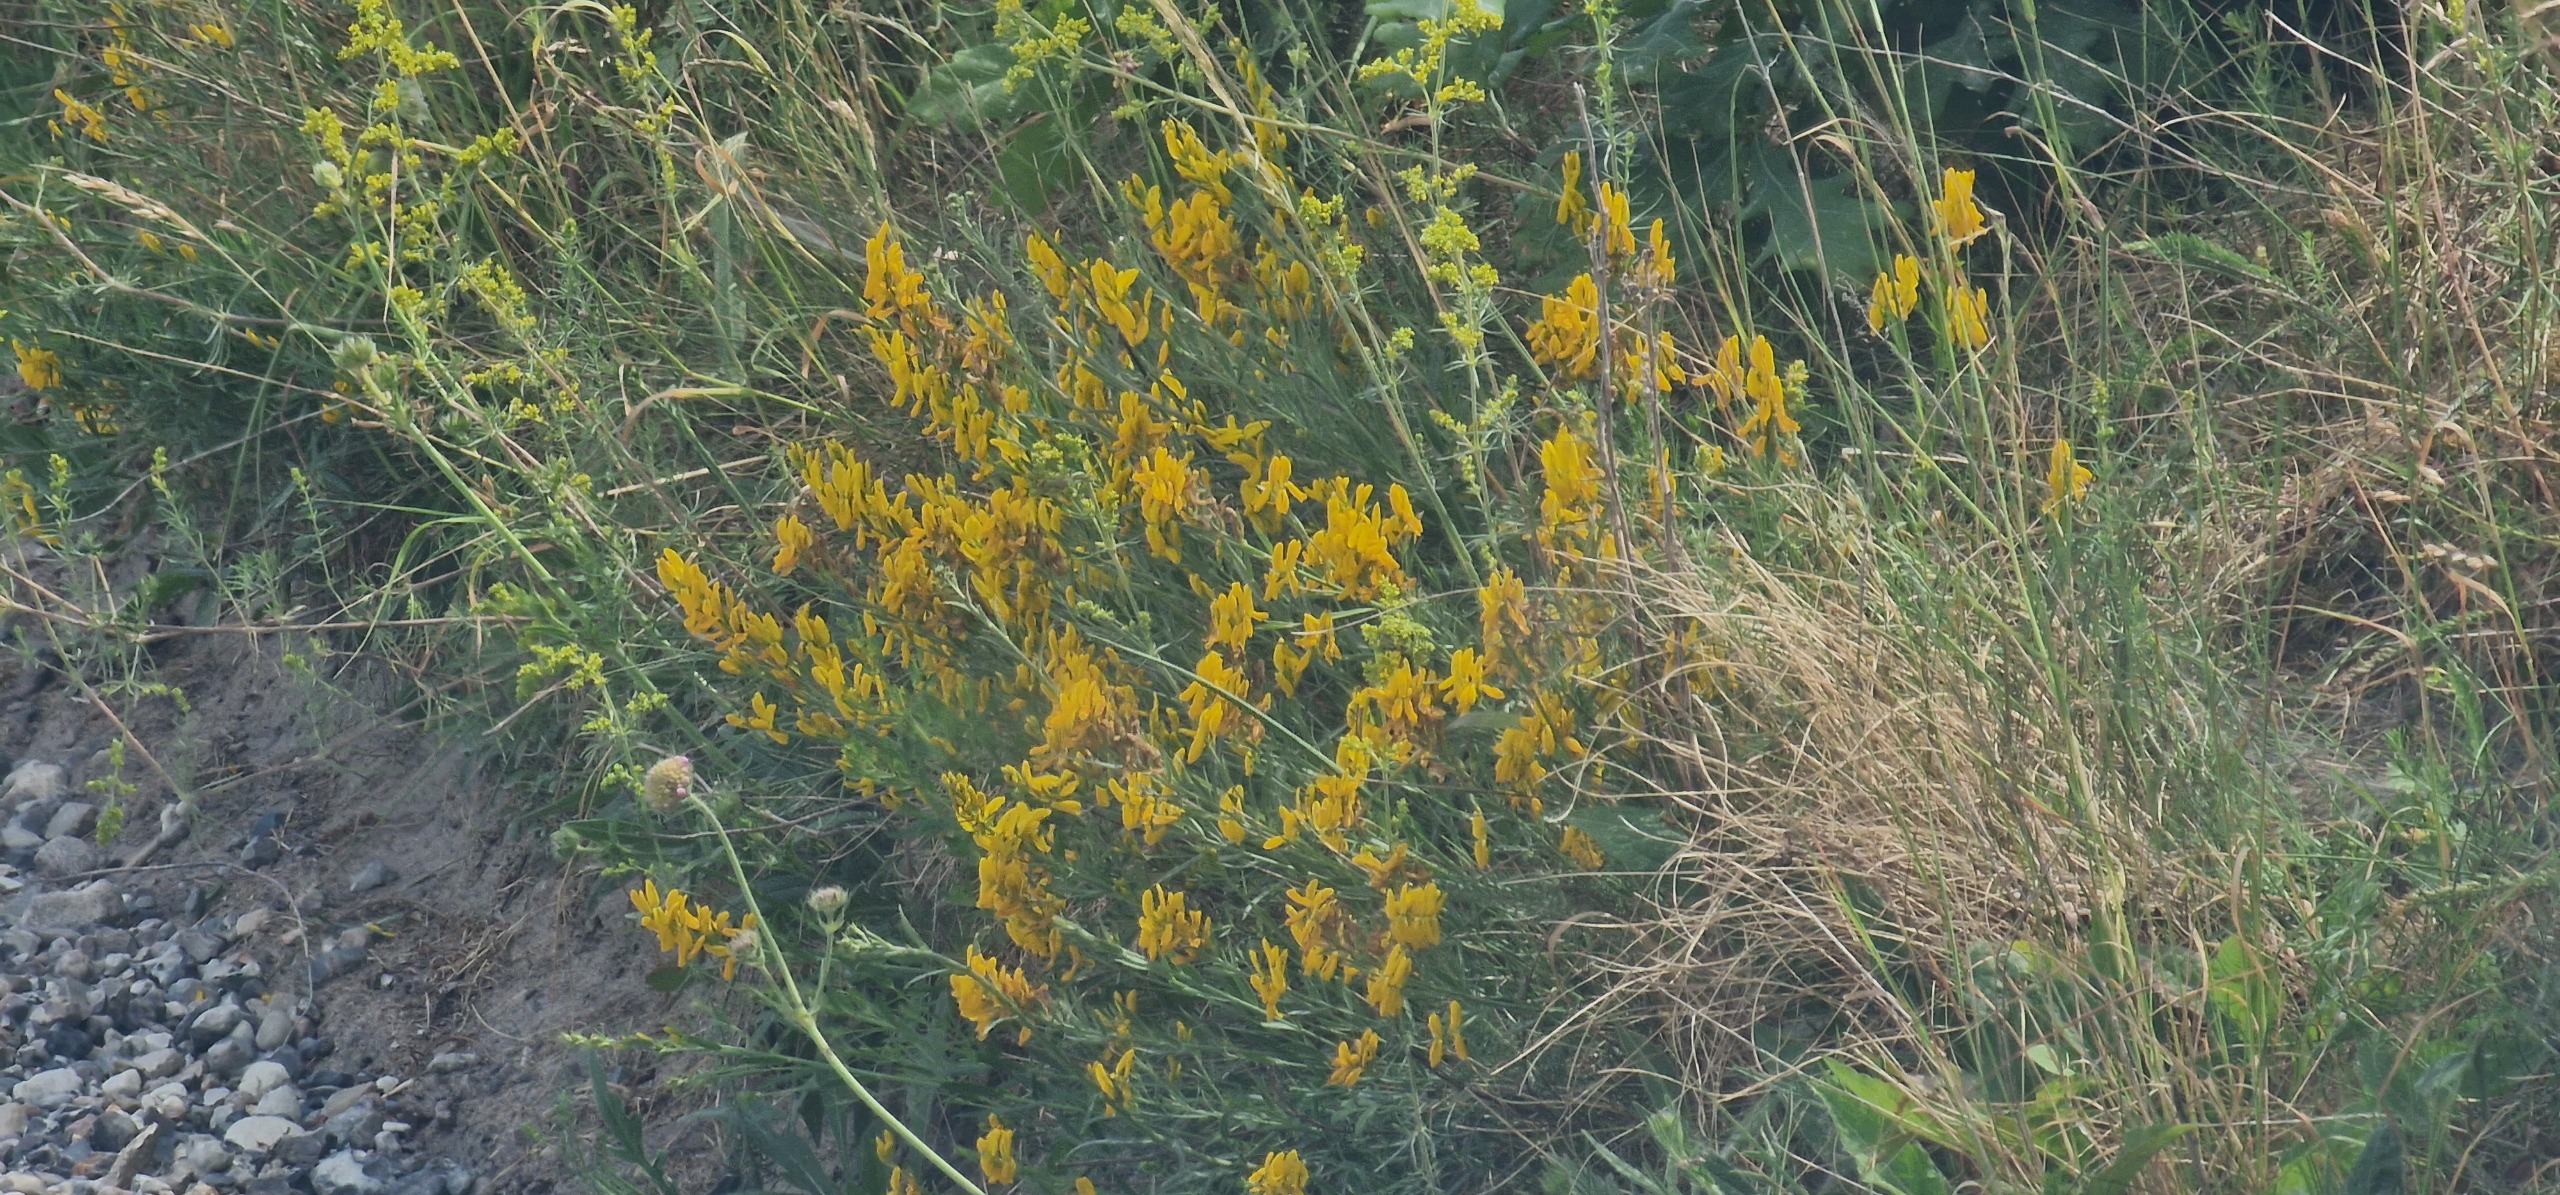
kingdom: Plantae
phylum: Tracheophyta
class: Magnoliopsida
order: Fabales
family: Fabaceae
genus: Genista
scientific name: Genista tinctoria
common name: Farve-visse
